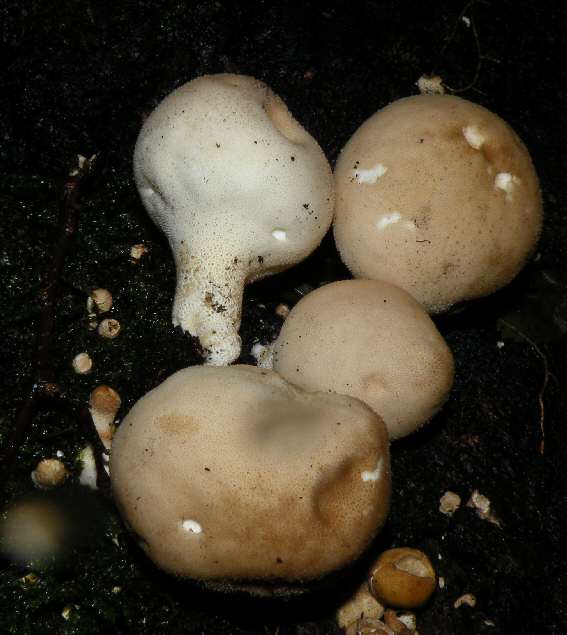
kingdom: Fungi
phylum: Basidiomycota
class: Agaricomycetes
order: Agaricales
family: Lycoperdaceae
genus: Apioperdon
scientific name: Apioperdon pyriforme
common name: pære-støvbold
